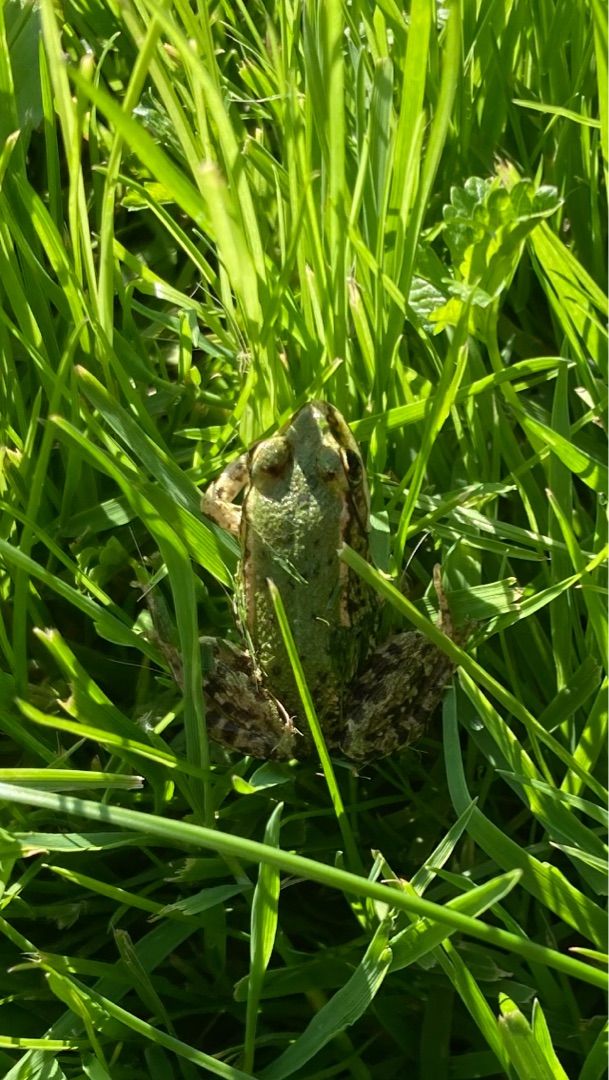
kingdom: Animalia
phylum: Chordata
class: Amphibia
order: Anura
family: Ranidae
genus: Pelophylax
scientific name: Pelophylax lessonae
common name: Grøn frø
